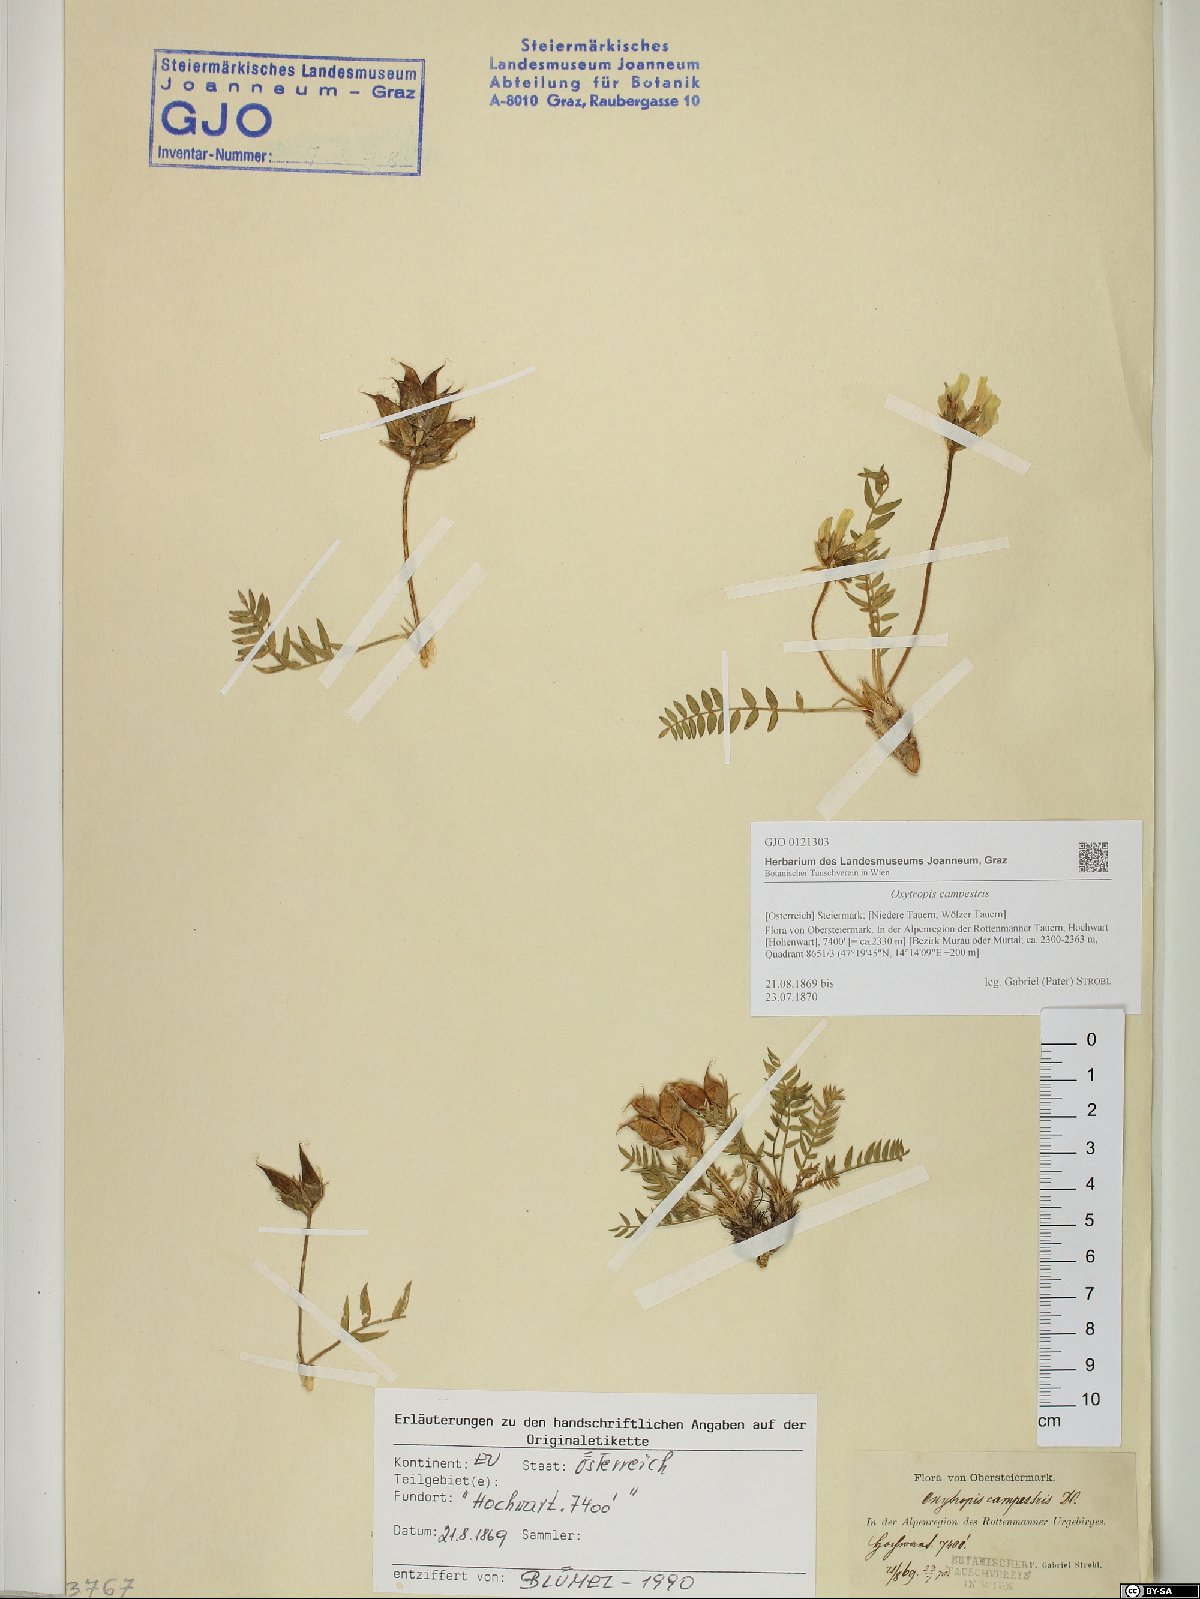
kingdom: Plantae
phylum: Tracheophyta
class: Magnoliopsida
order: Fabales
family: Fabaceae
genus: Oxytropis
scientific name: Oxytropis campestris
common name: Field locoweed
